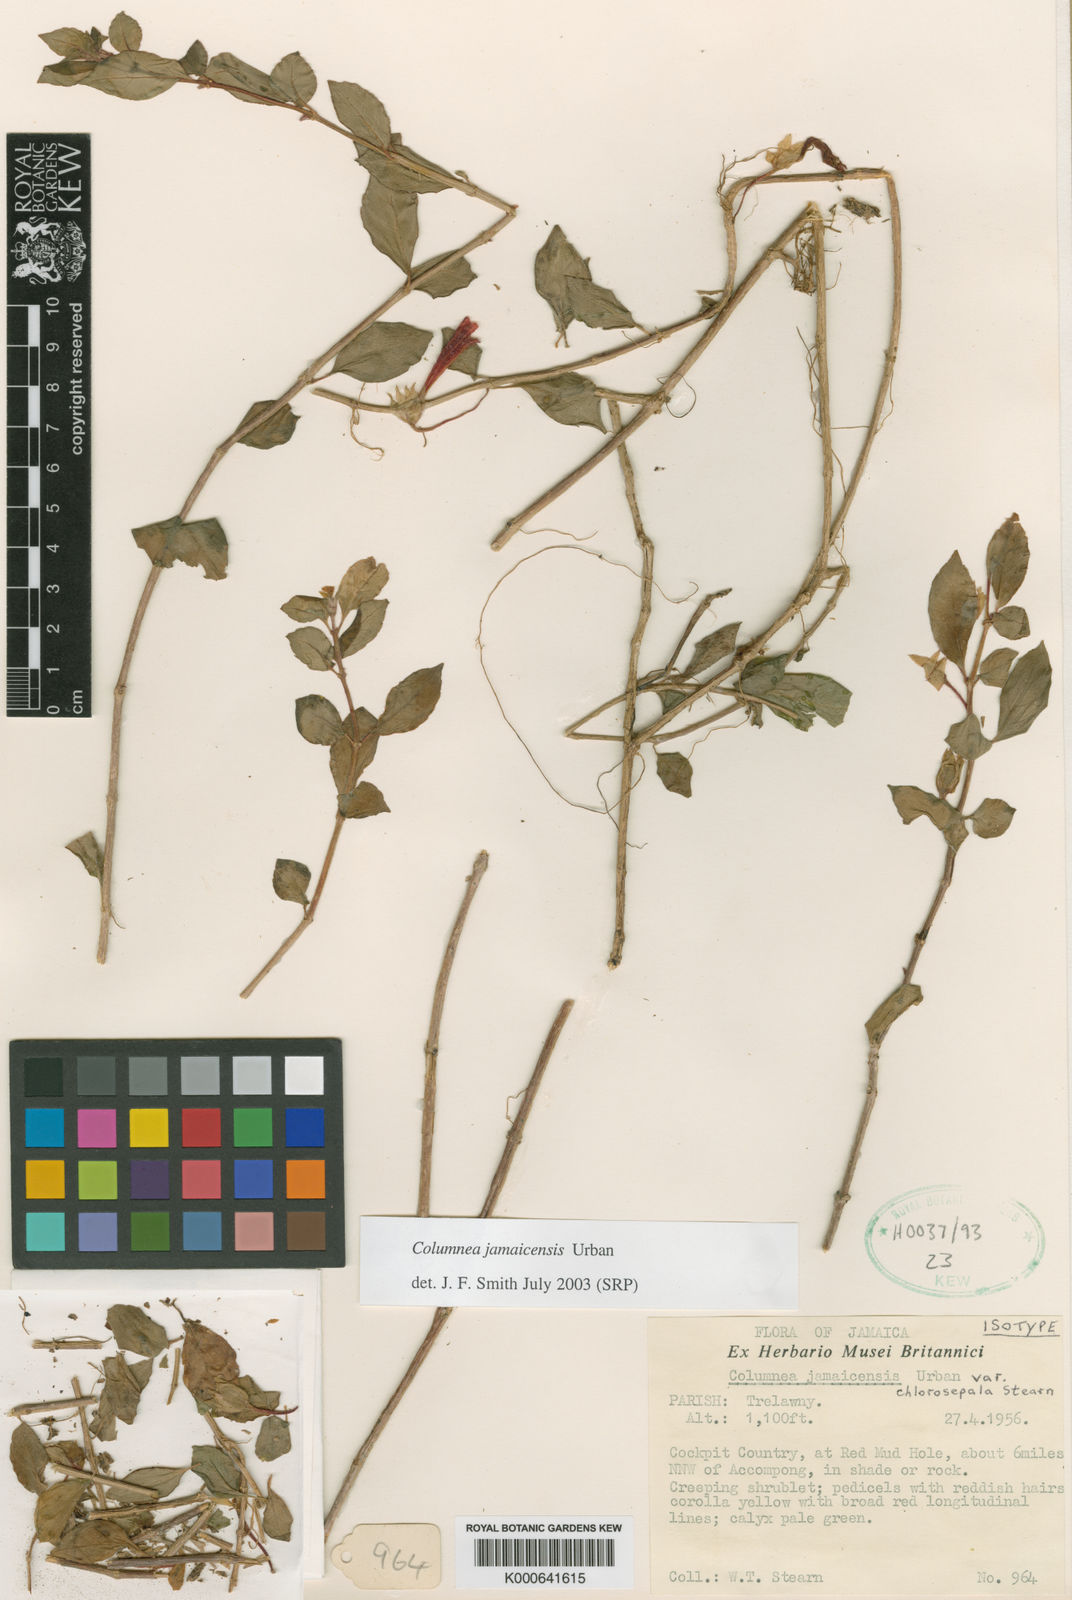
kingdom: Plantae
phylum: Tracheophyta
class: Magnoliopsida
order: Lamiales
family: Gesneriaceae
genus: Columnea
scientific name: Columnea repens
